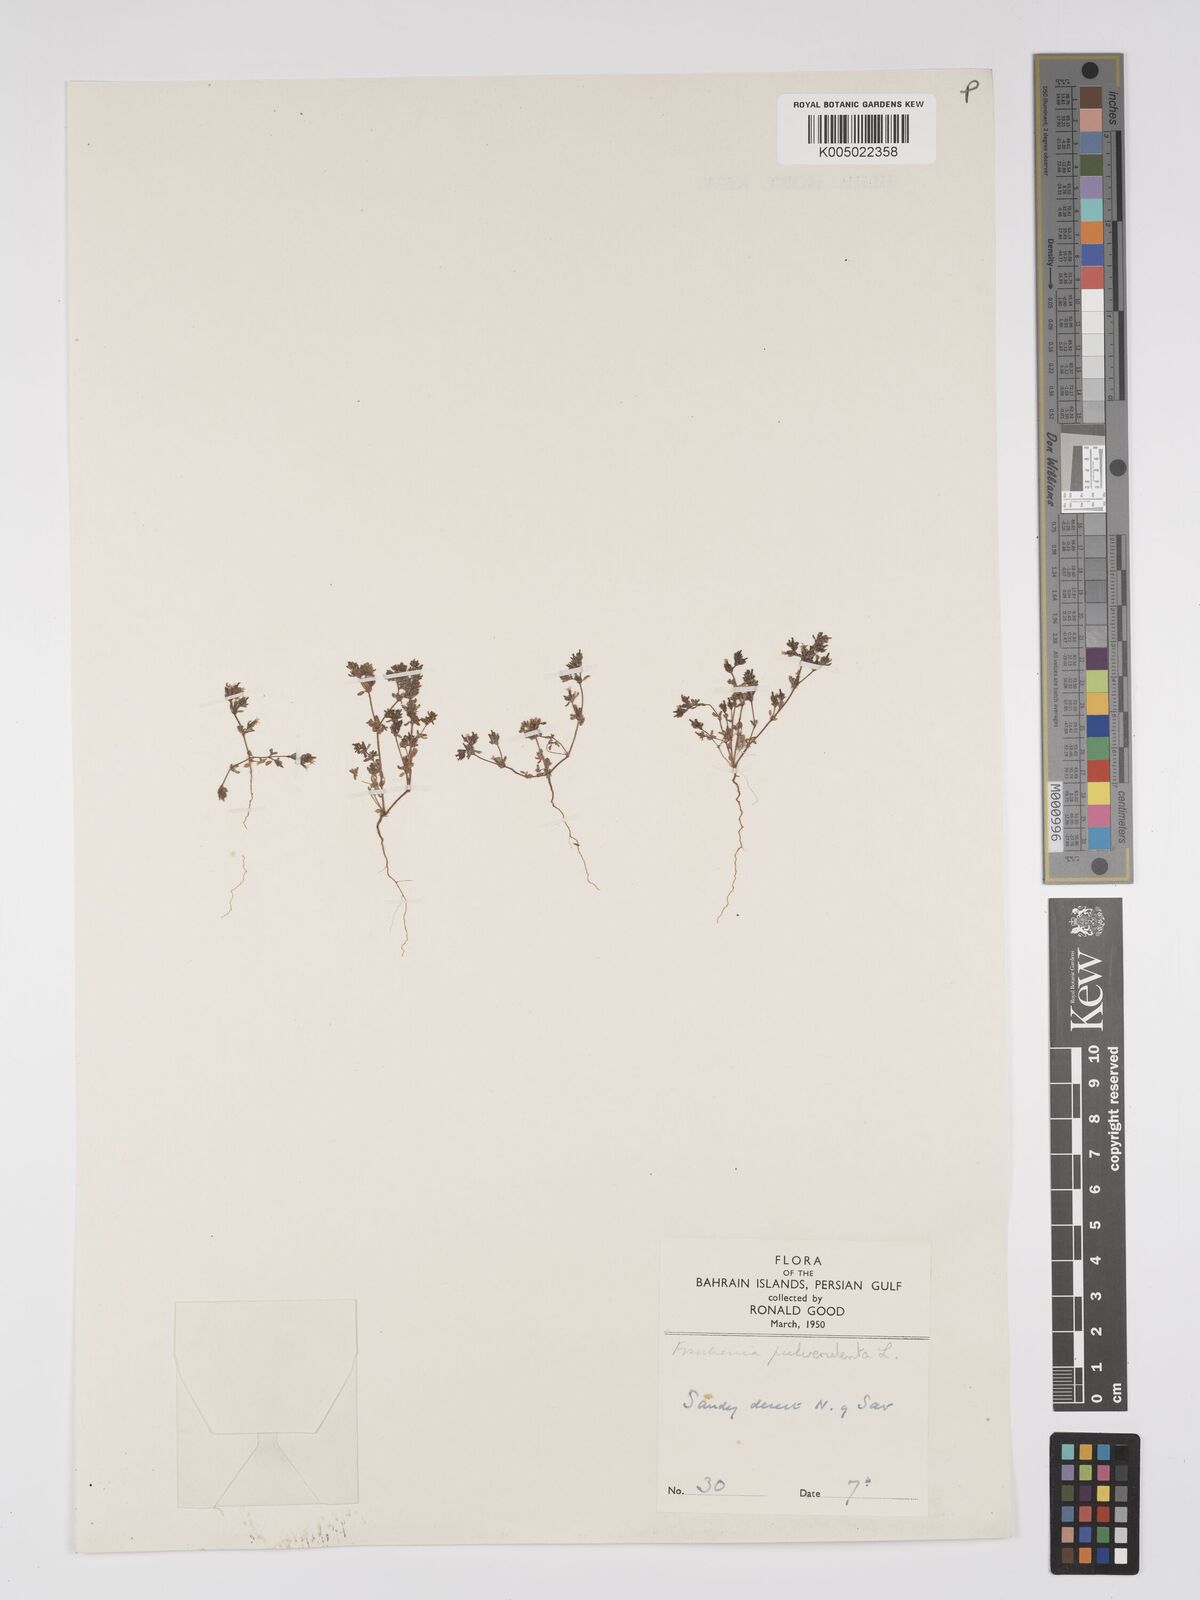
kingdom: Plantae
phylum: Tracheophyta
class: Magnoliopsida
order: Caryophyllales
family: Frankeniaceae
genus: Frankenia
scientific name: Frankenia pulverulenta
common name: European seaheath
